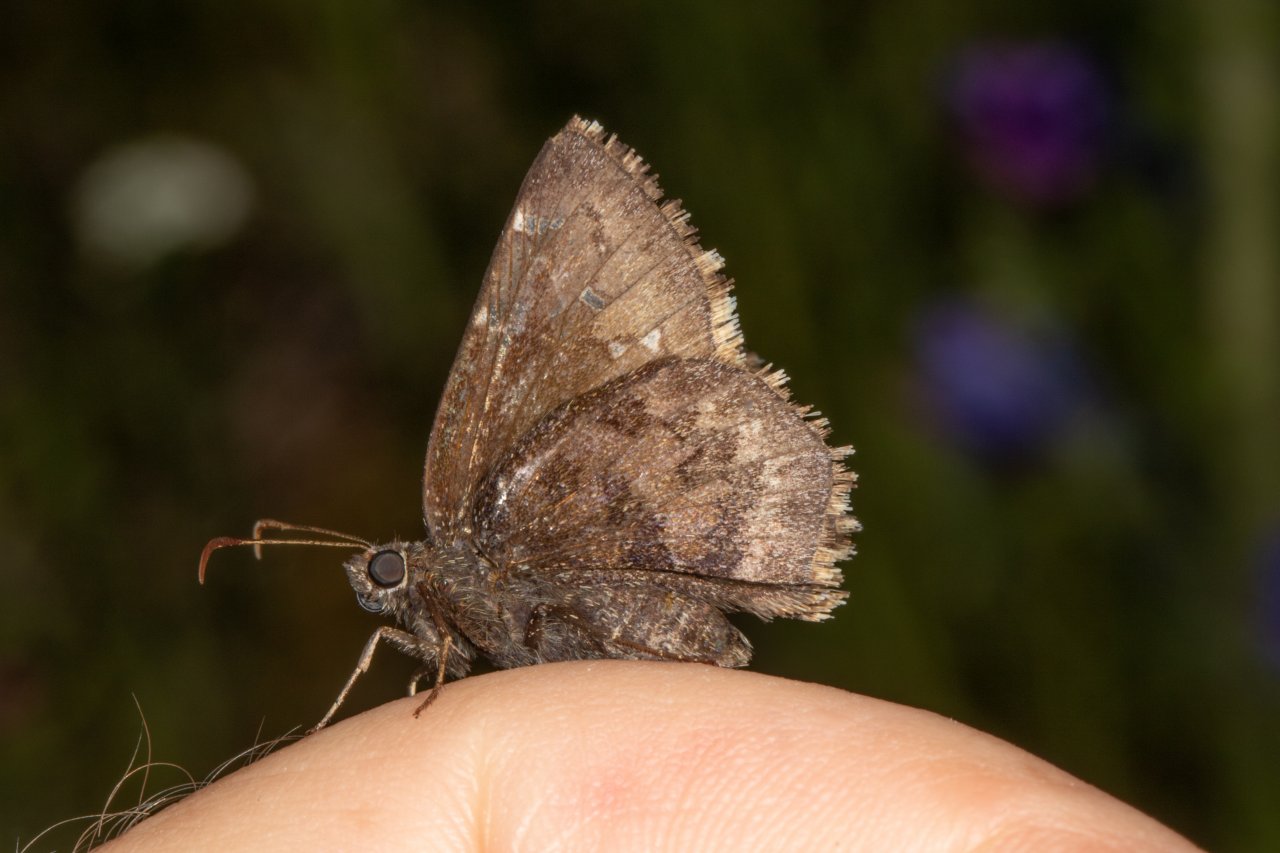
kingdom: Animalia
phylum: Arthropoda
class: Insecta
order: Lepidoptera
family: Hesperiidae
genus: Autochton
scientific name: Autochton
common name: Northern Cloudywing
